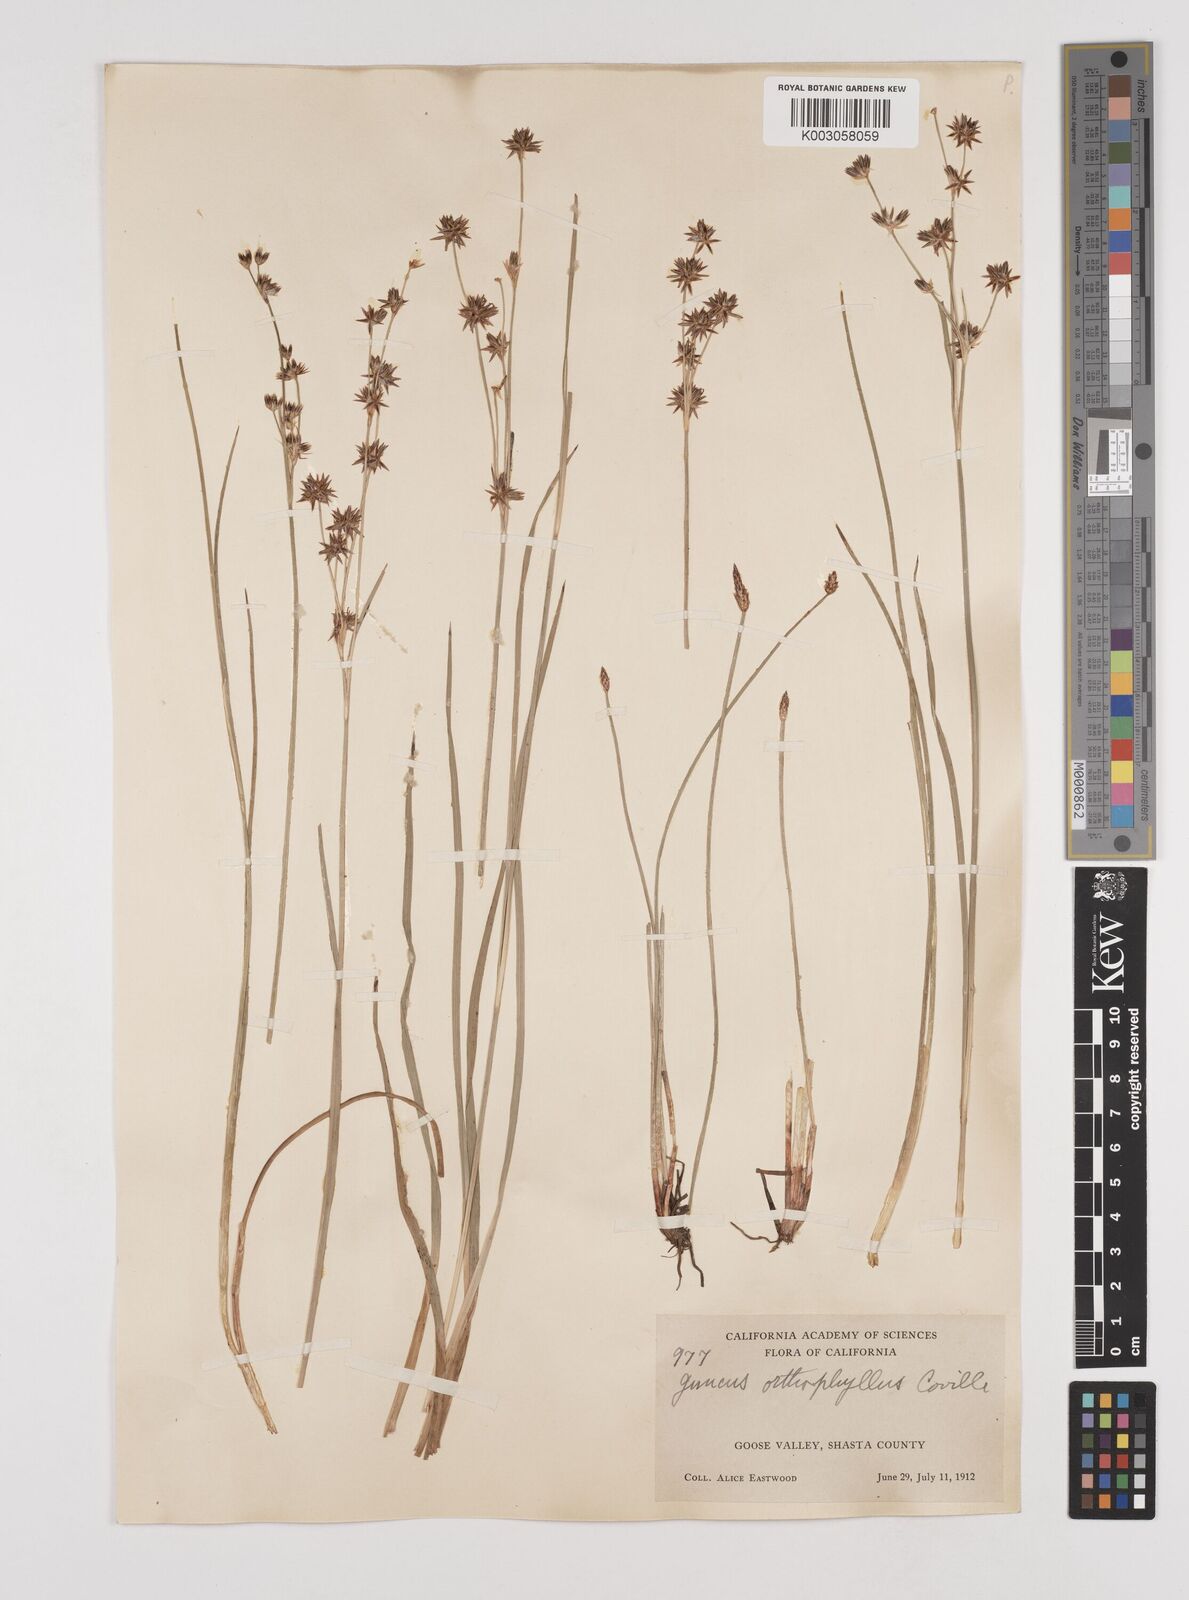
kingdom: Plantae
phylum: Tracheophyta
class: Liliopsida
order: Poales
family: Juncaceae
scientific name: Juncaceae
